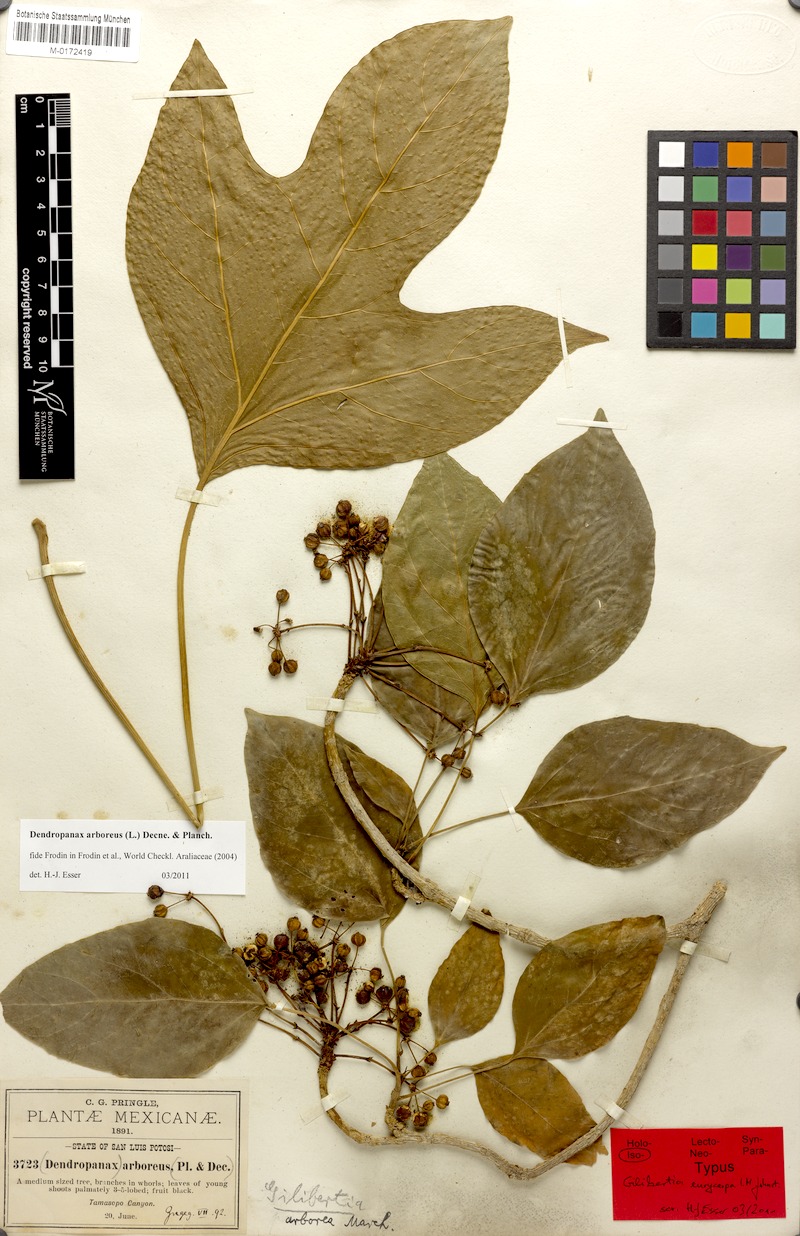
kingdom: Plantae
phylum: Tracheophyta
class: Magnoliopsida
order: Apiales
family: Araliaceae
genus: Dendropanax
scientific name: Dendropanax arboreus
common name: Potato-wood
